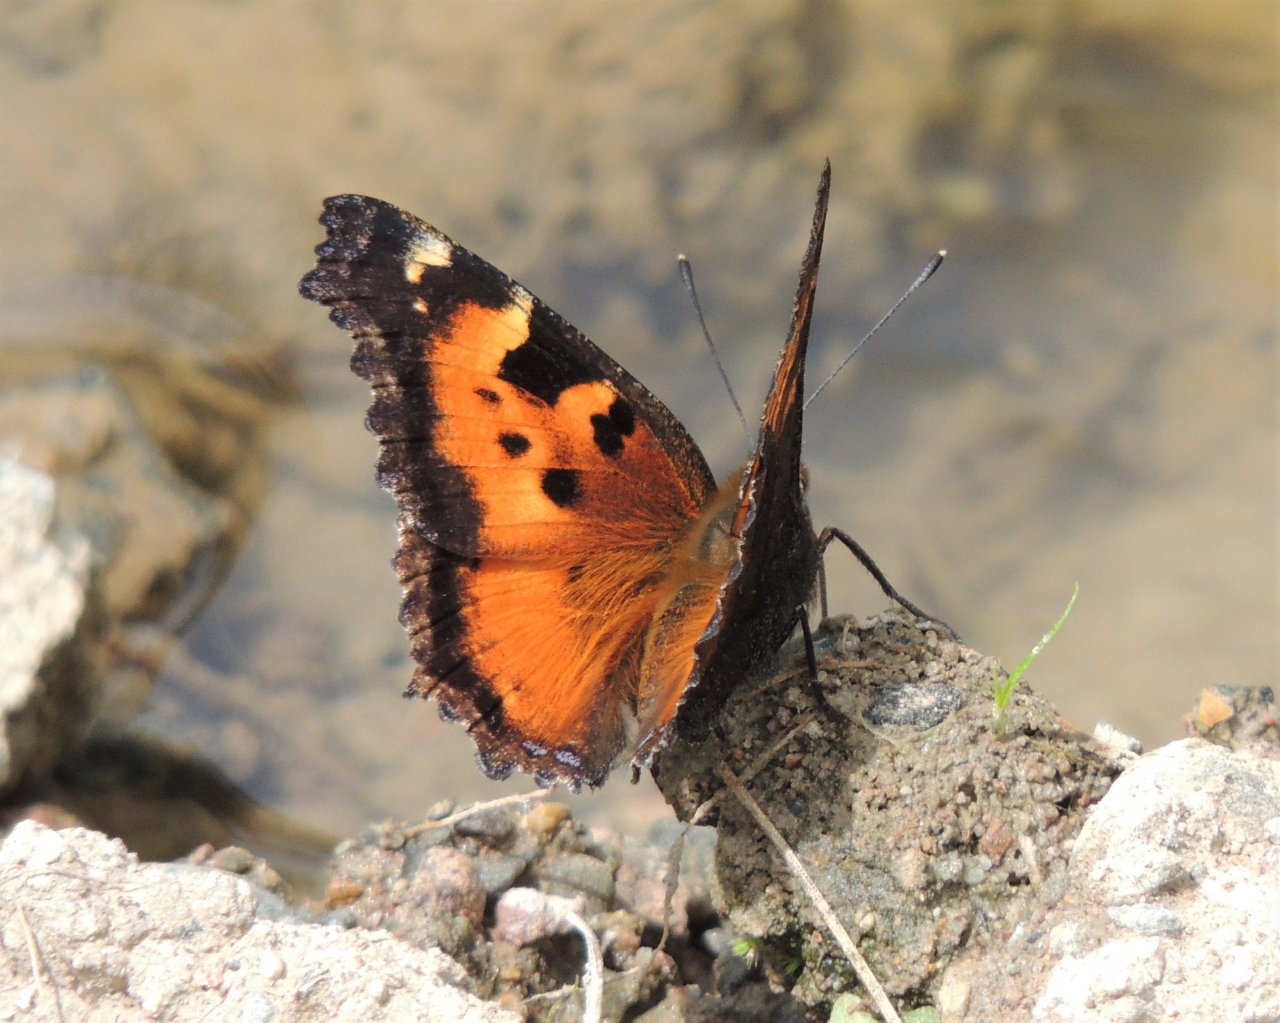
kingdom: Animalia
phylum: Arthropoda
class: Insecta
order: Lepidoptera
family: Nymphalidae
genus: Nymphalis
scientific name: Nymphalis californica
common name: California Tortoiseshell
